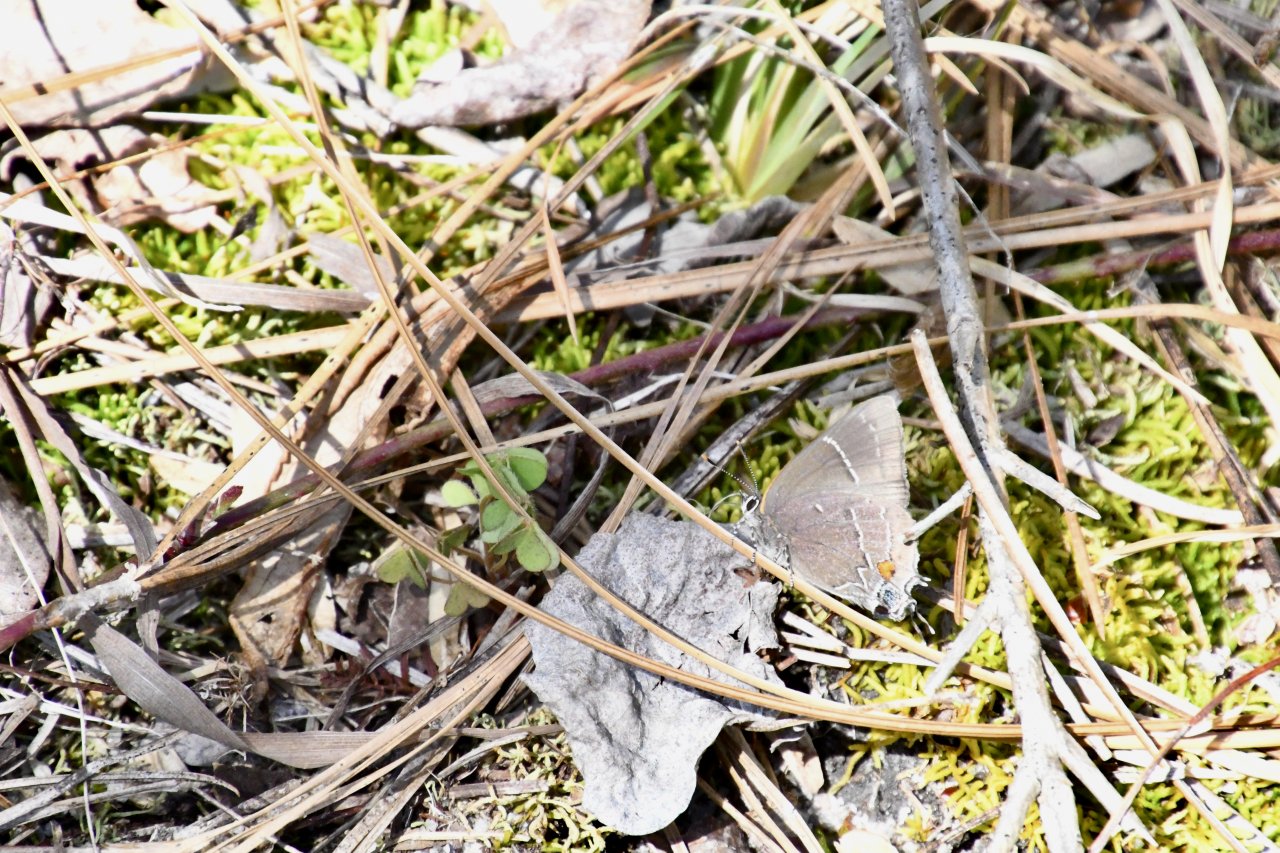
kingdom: Animalia
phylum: Arthropoda
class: Insecta
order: Lepidoptera
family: Lycaenidae
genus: Parrhasius
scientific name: Parrhasius m-album
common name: White-m Hairstreak
